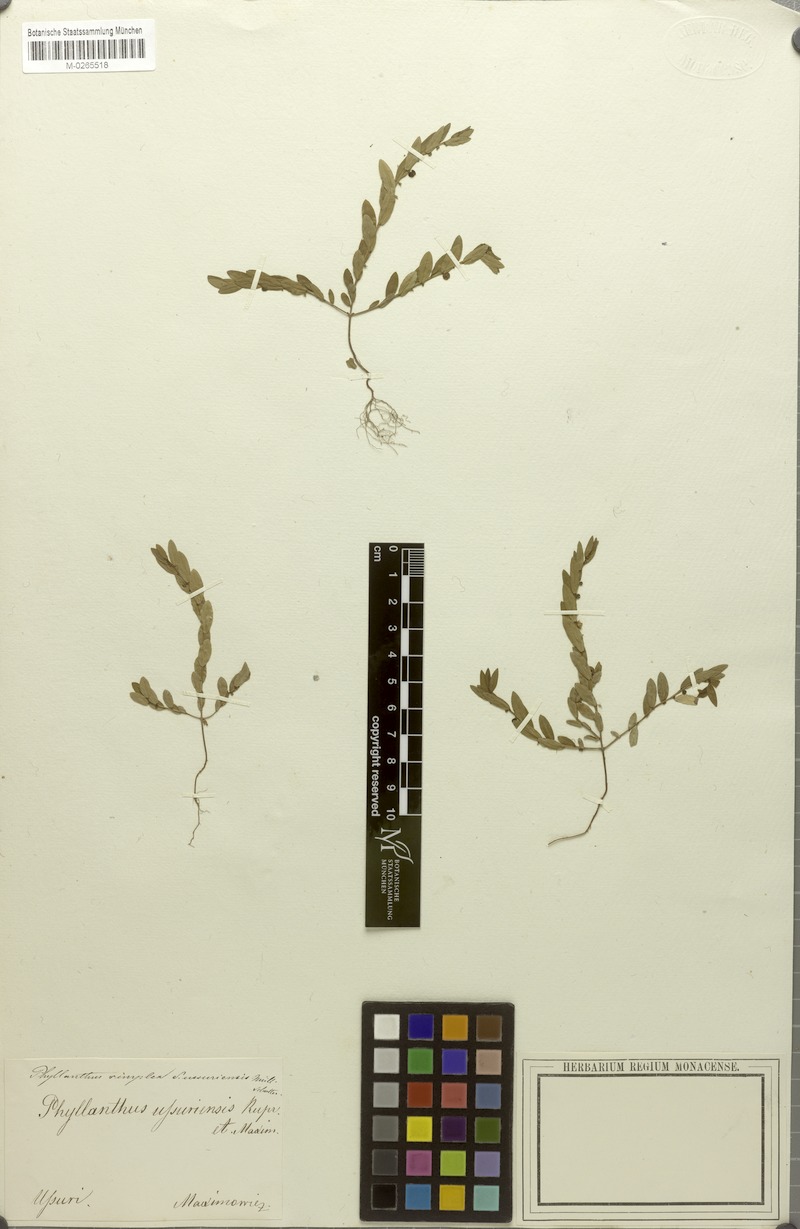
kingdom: Plantae
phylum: Tracheophyta
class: Magnoliopsida
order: Malpighiales
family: Phyllanthaceae
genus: Phyllanthus
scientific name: Phyllanthus ussuriensis
